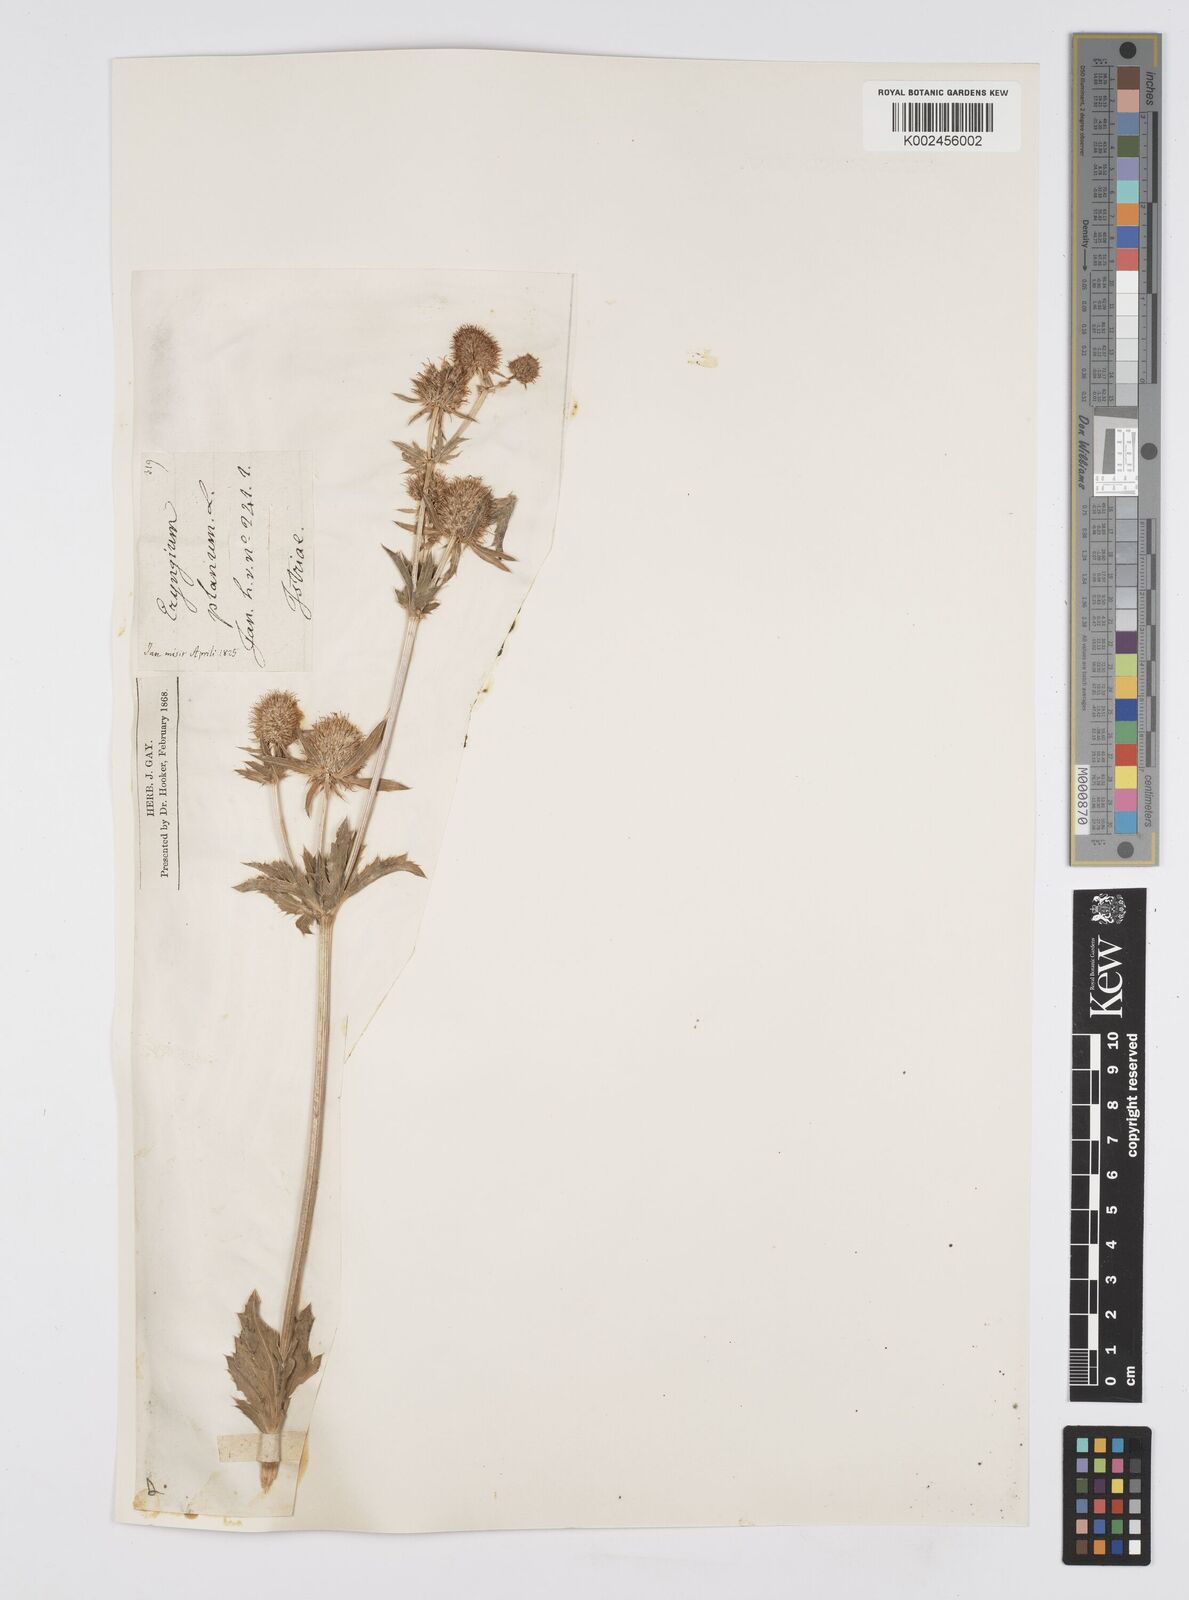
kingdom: Plantae
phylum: Tracheophyta
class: Magnoliopsida
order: Apiales
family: Apiaceae
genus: Eryngium
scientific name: Eryngium planum
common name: Blue eryngo
